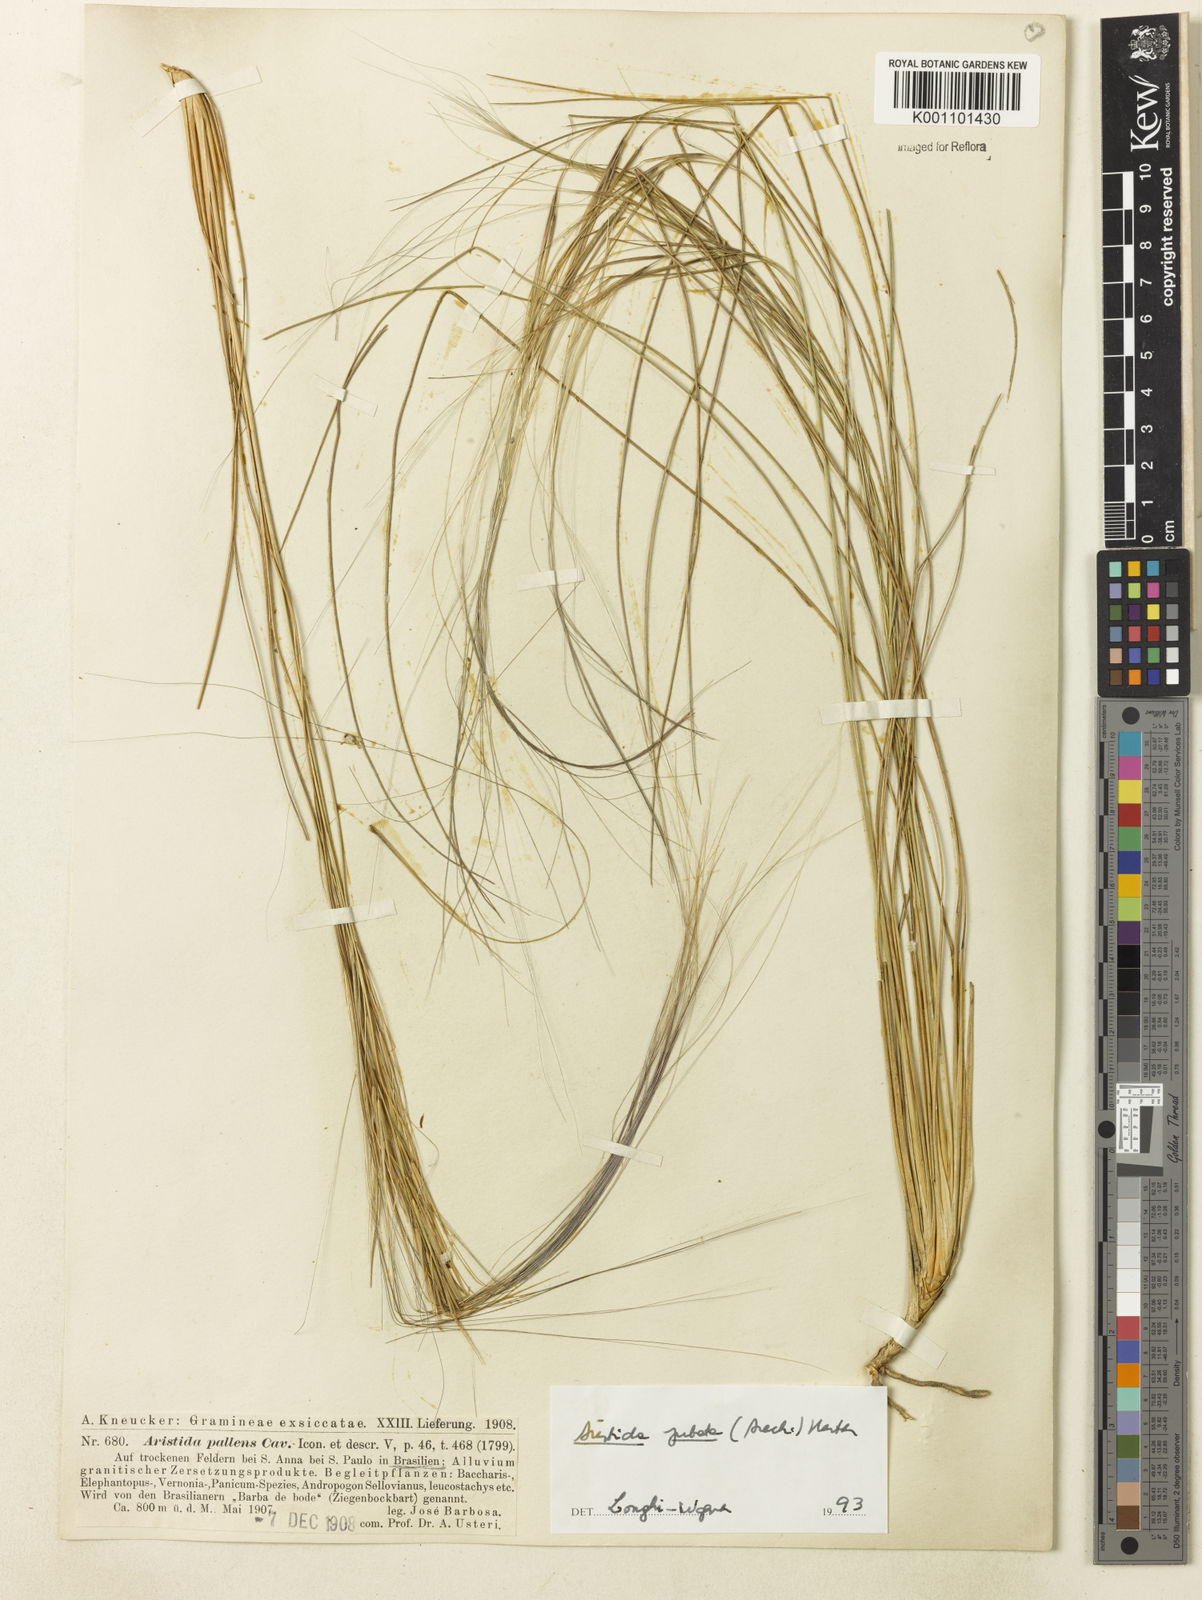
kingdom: Plantae
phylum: Tracheophyta
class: Liliopsida
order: Poales
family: Poaceae
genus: Aristida
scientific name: Aristida jubata
